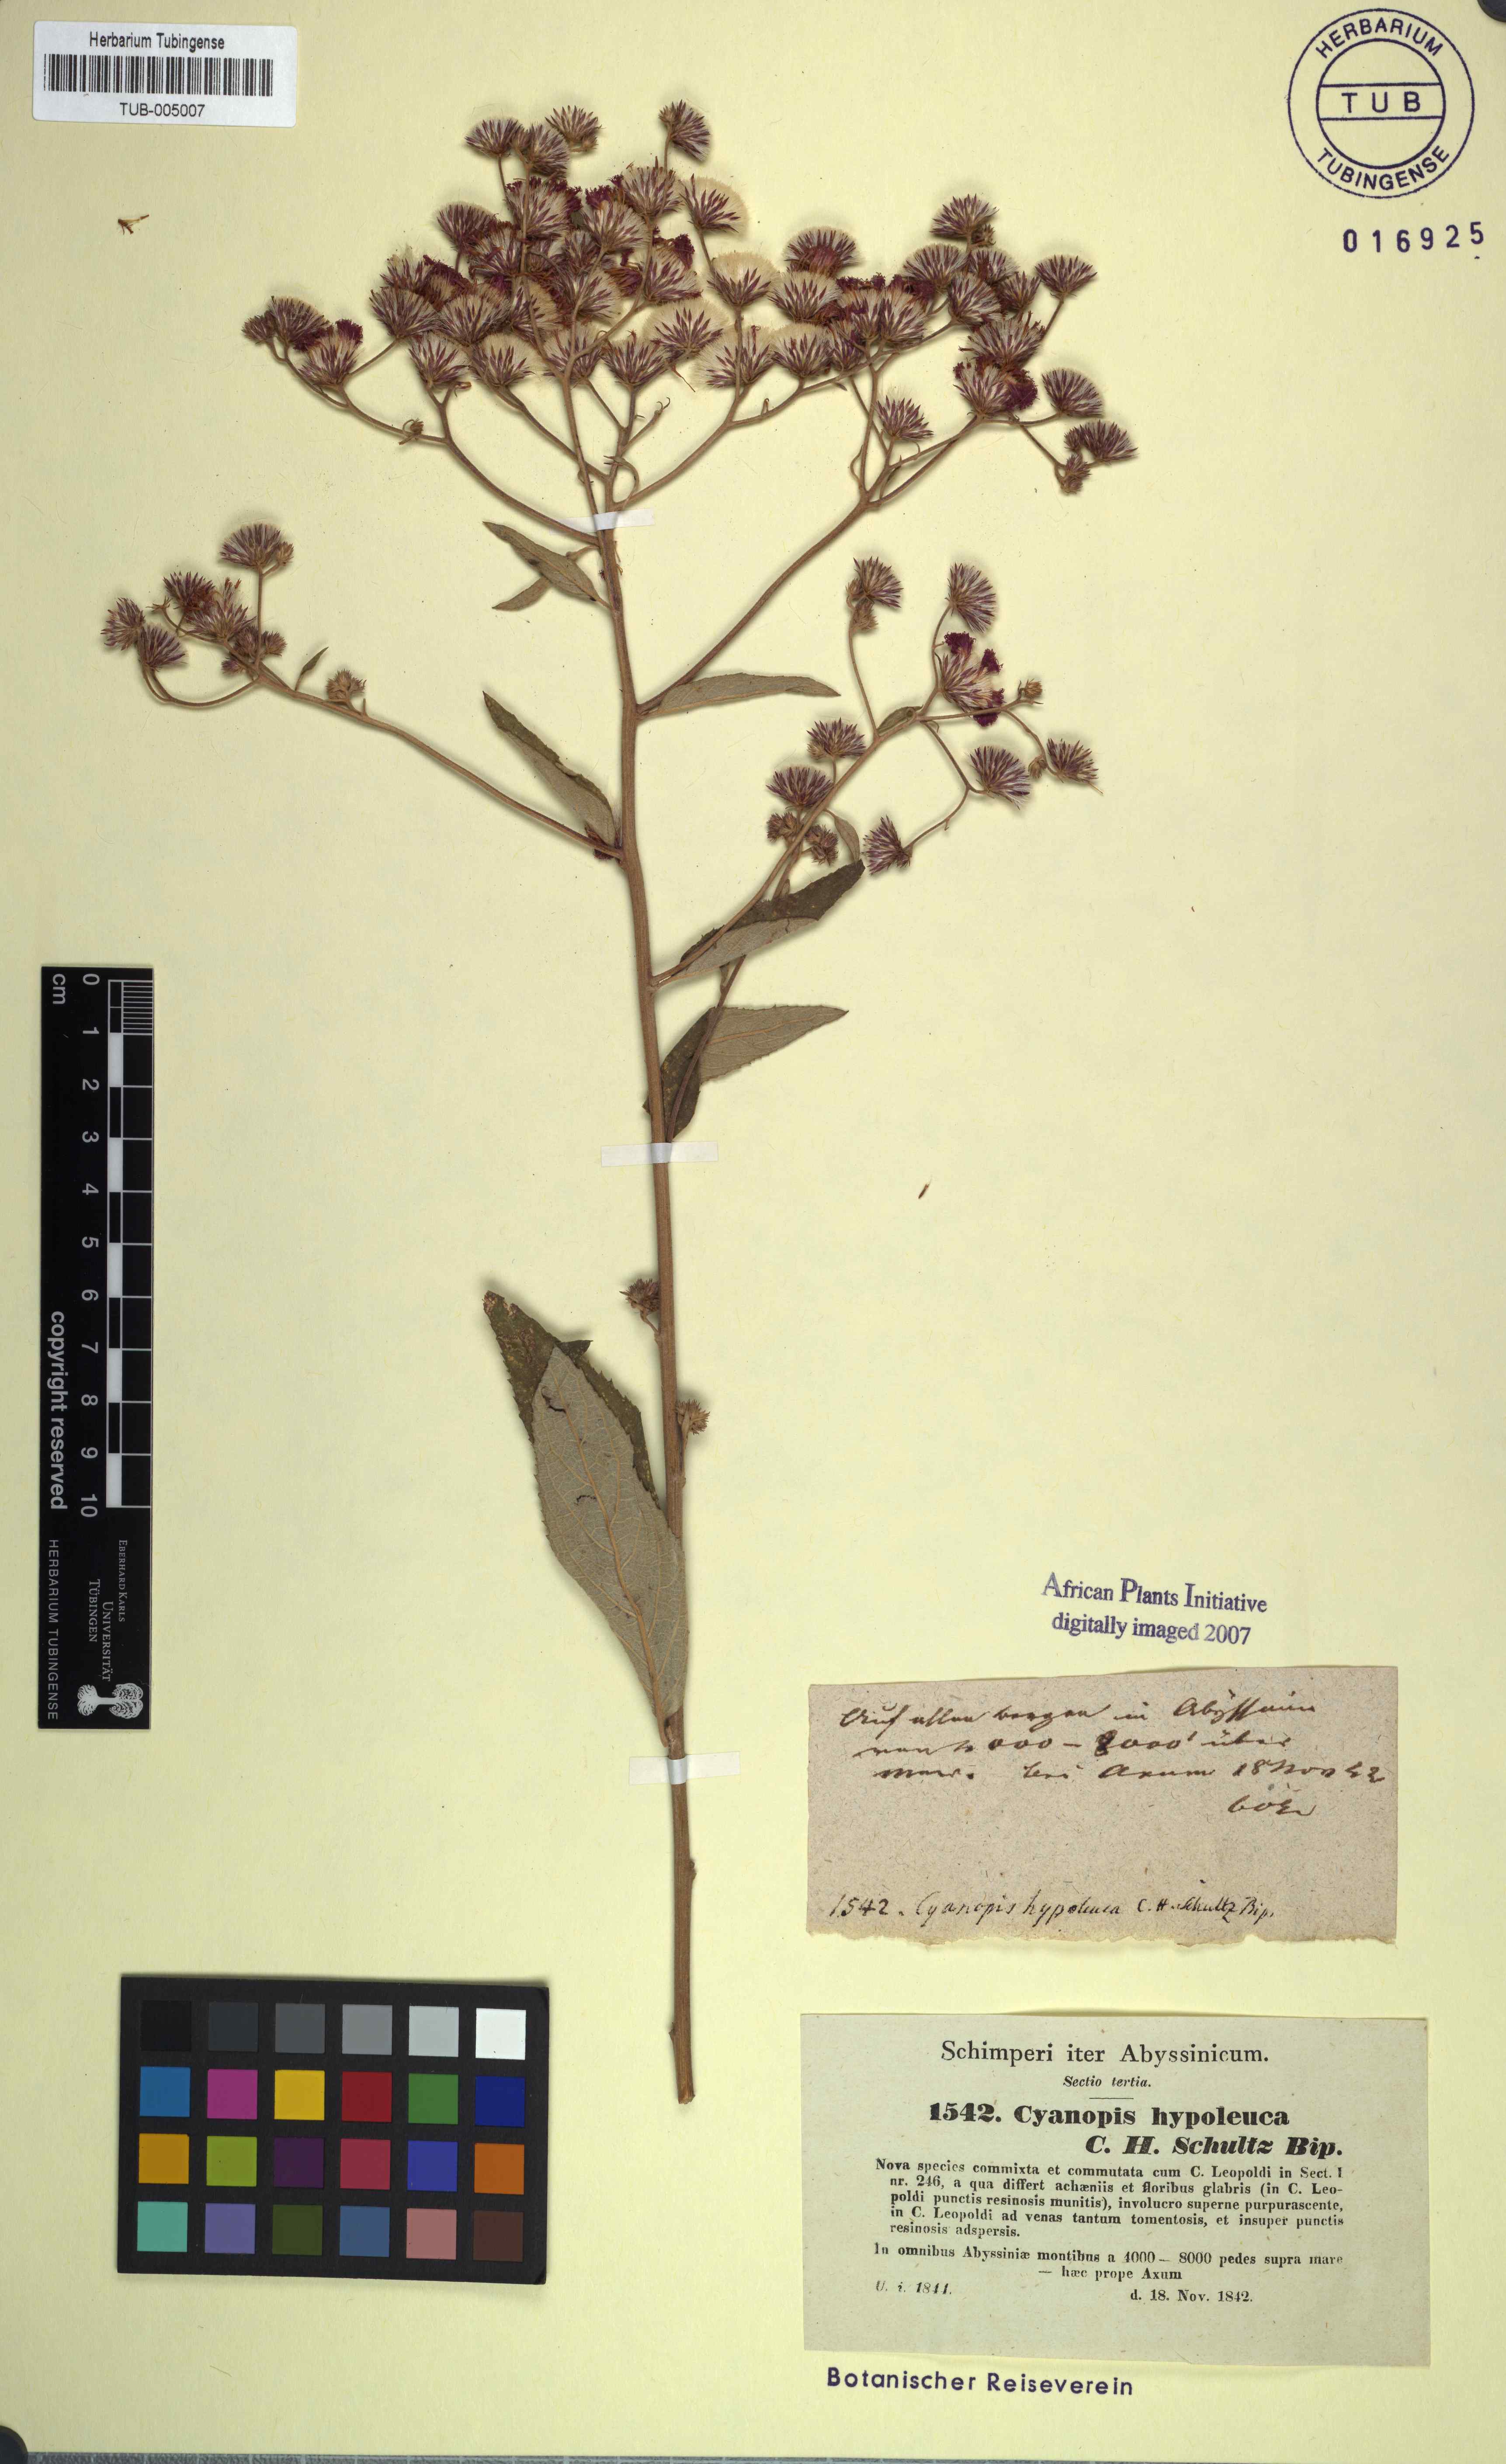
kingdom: Plantae
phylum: Tracheophyta
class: Magnoliopsida
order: Asterales
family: Asteraceae
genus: Vernonia
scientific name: Vernonia
